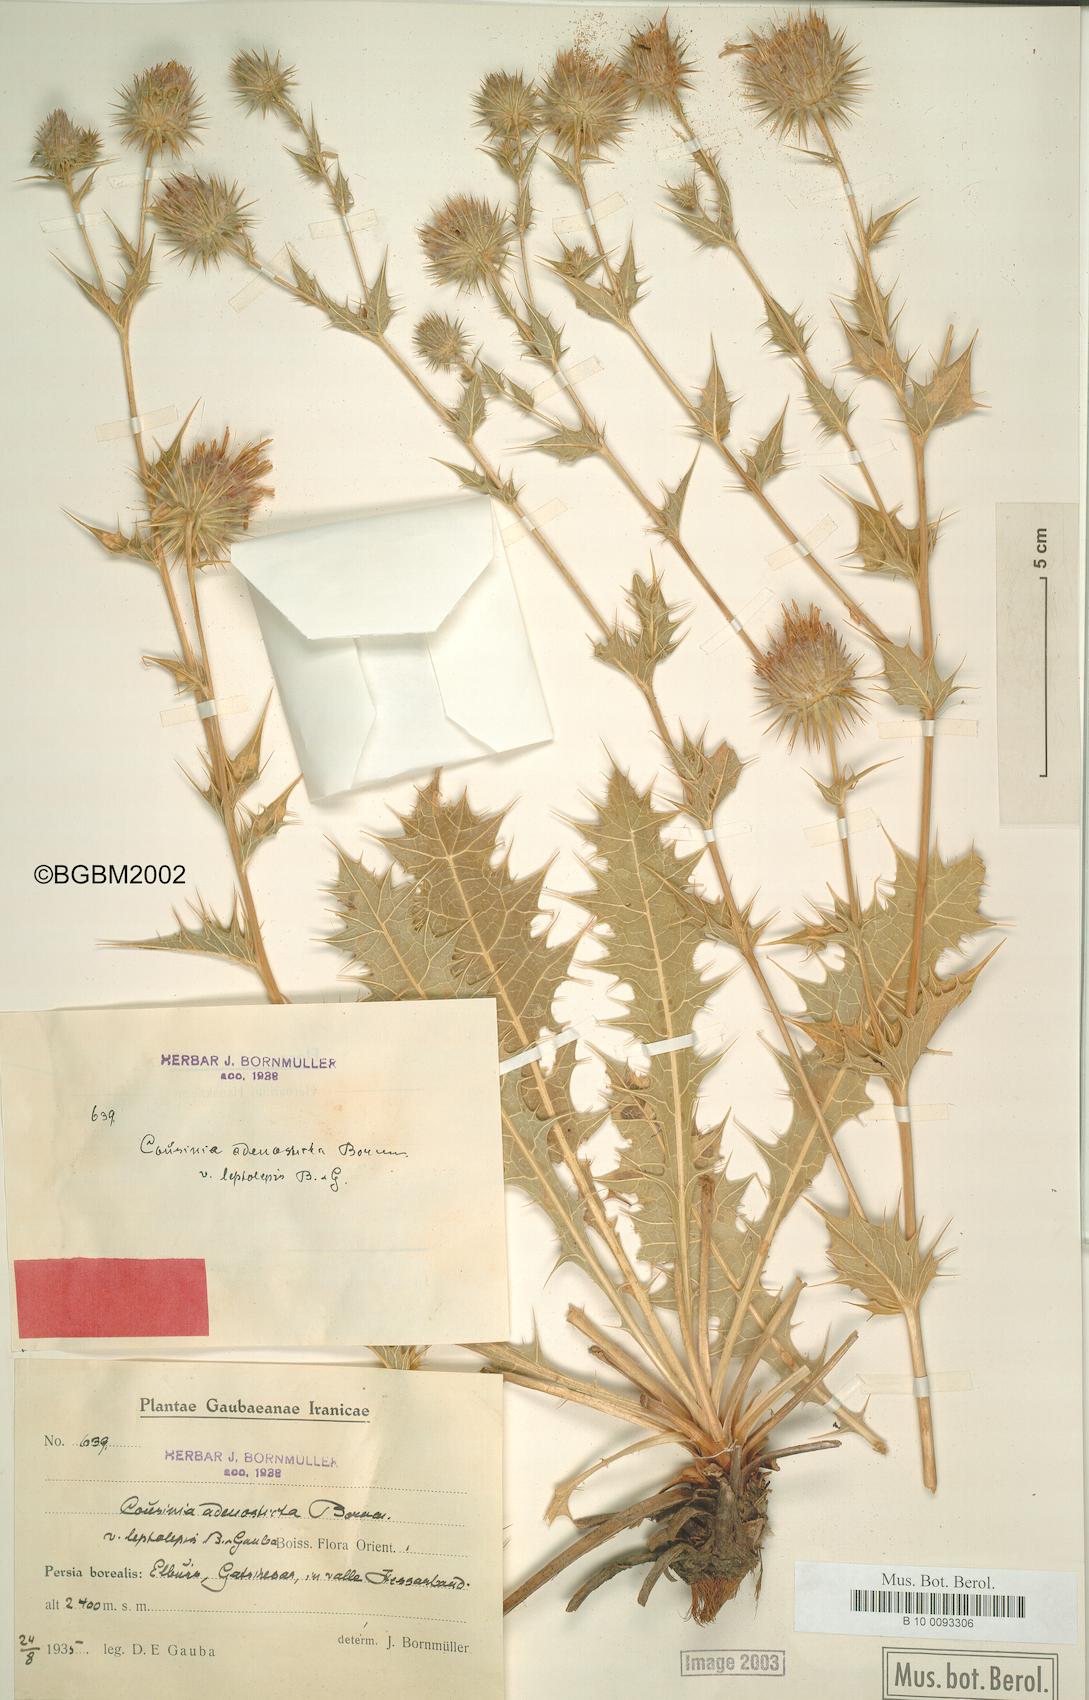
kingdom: Plantae
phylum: Tracheophyta
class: Magnoliopsida
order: Asterales
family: Asteraceae
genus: Cousinia
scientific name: Cousinia leptolepis
